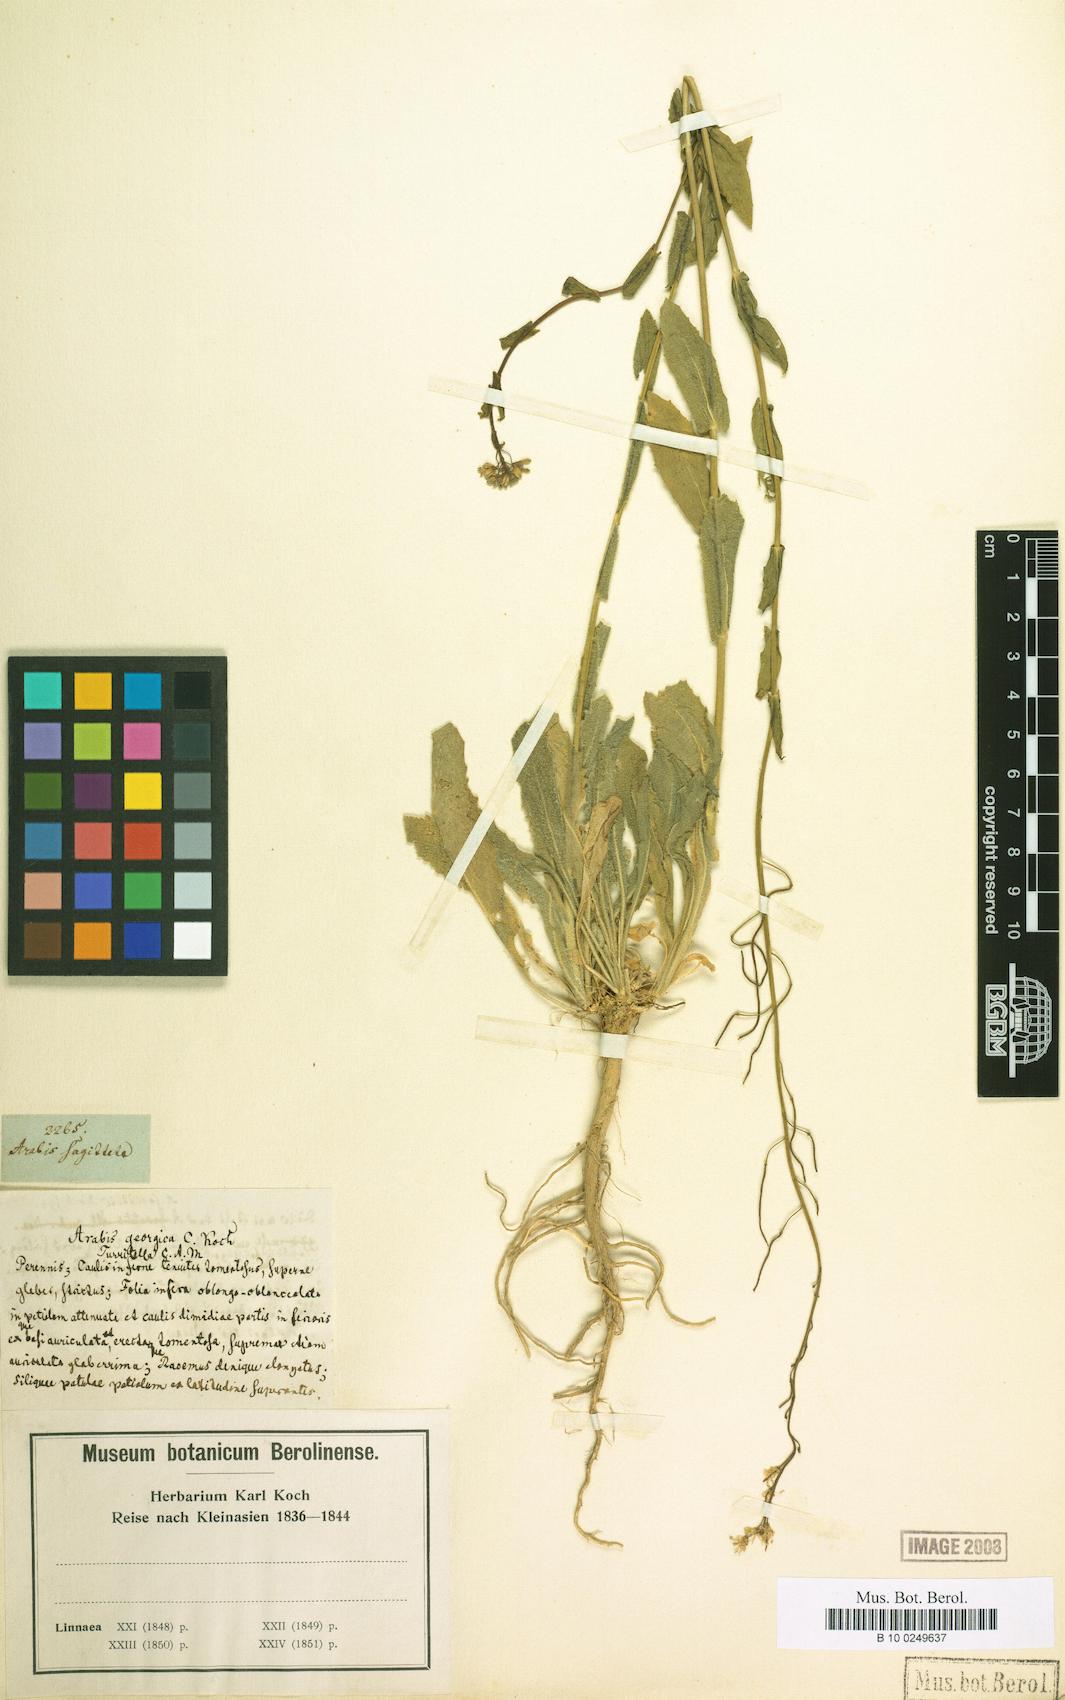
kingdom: Plantae
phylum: Tracheophyta
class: Magnoliopsida
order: Brassicales
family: Brassicaceae
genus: Arabis
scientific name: Arabis georgiana
